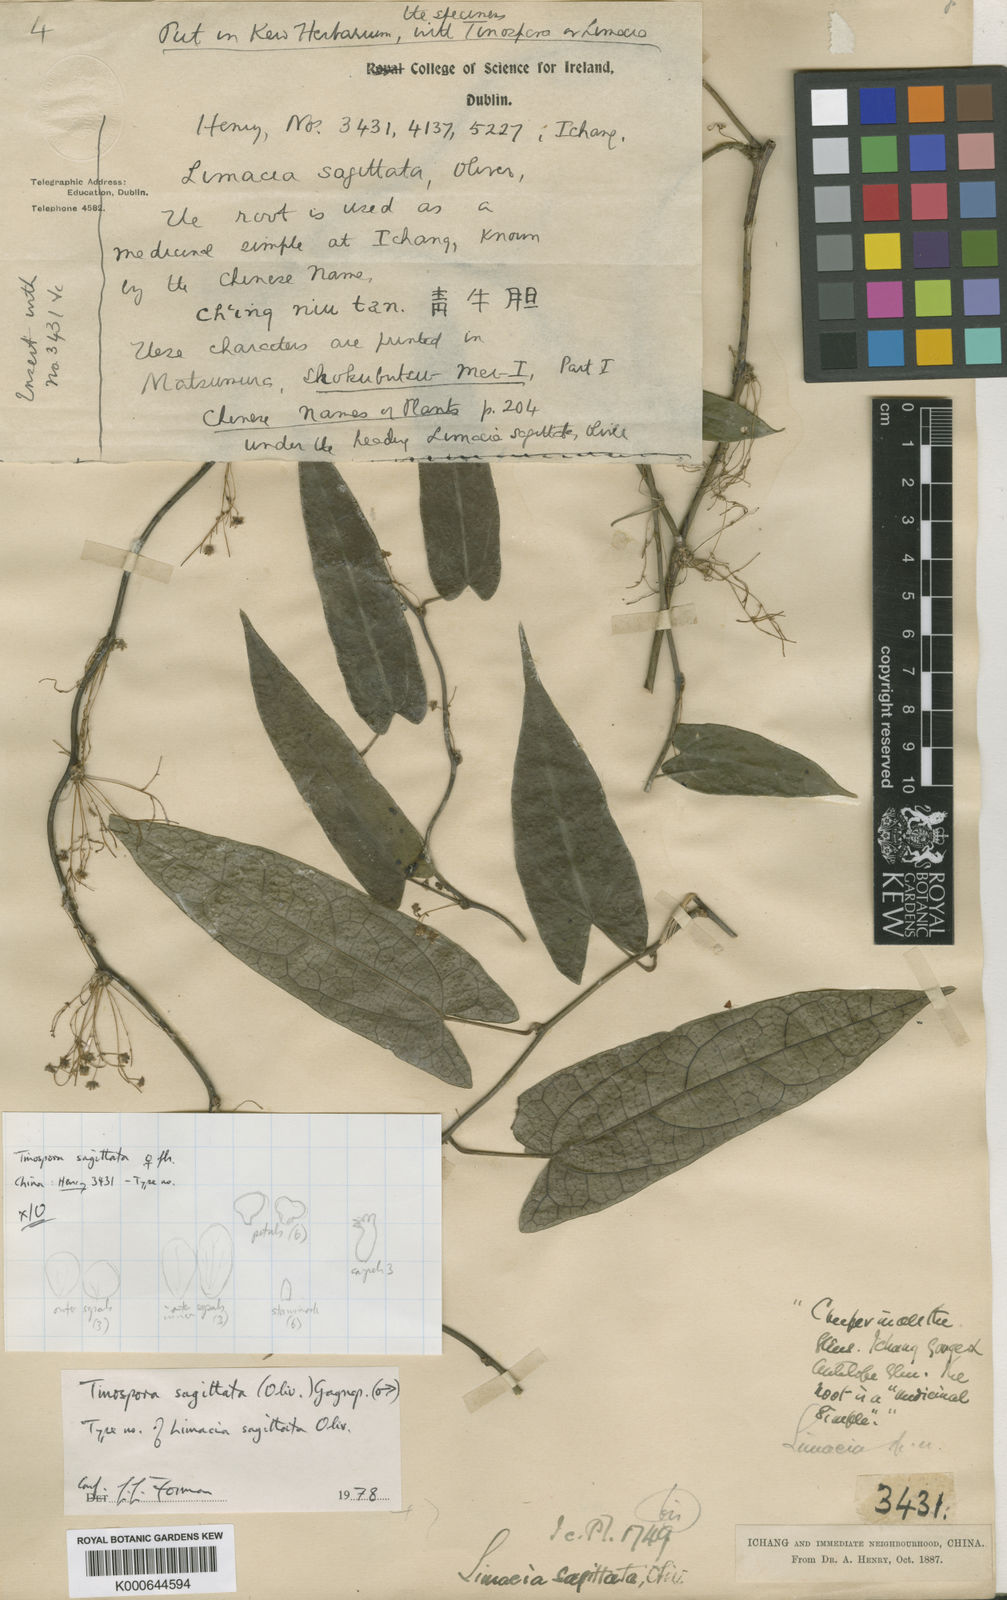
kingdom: Plantae
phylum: Tracheophyta
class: Magnoliopsida
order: Ranunculales
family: Menispermaceae
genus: Paratinospora
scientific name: Paratinospora sagittata
